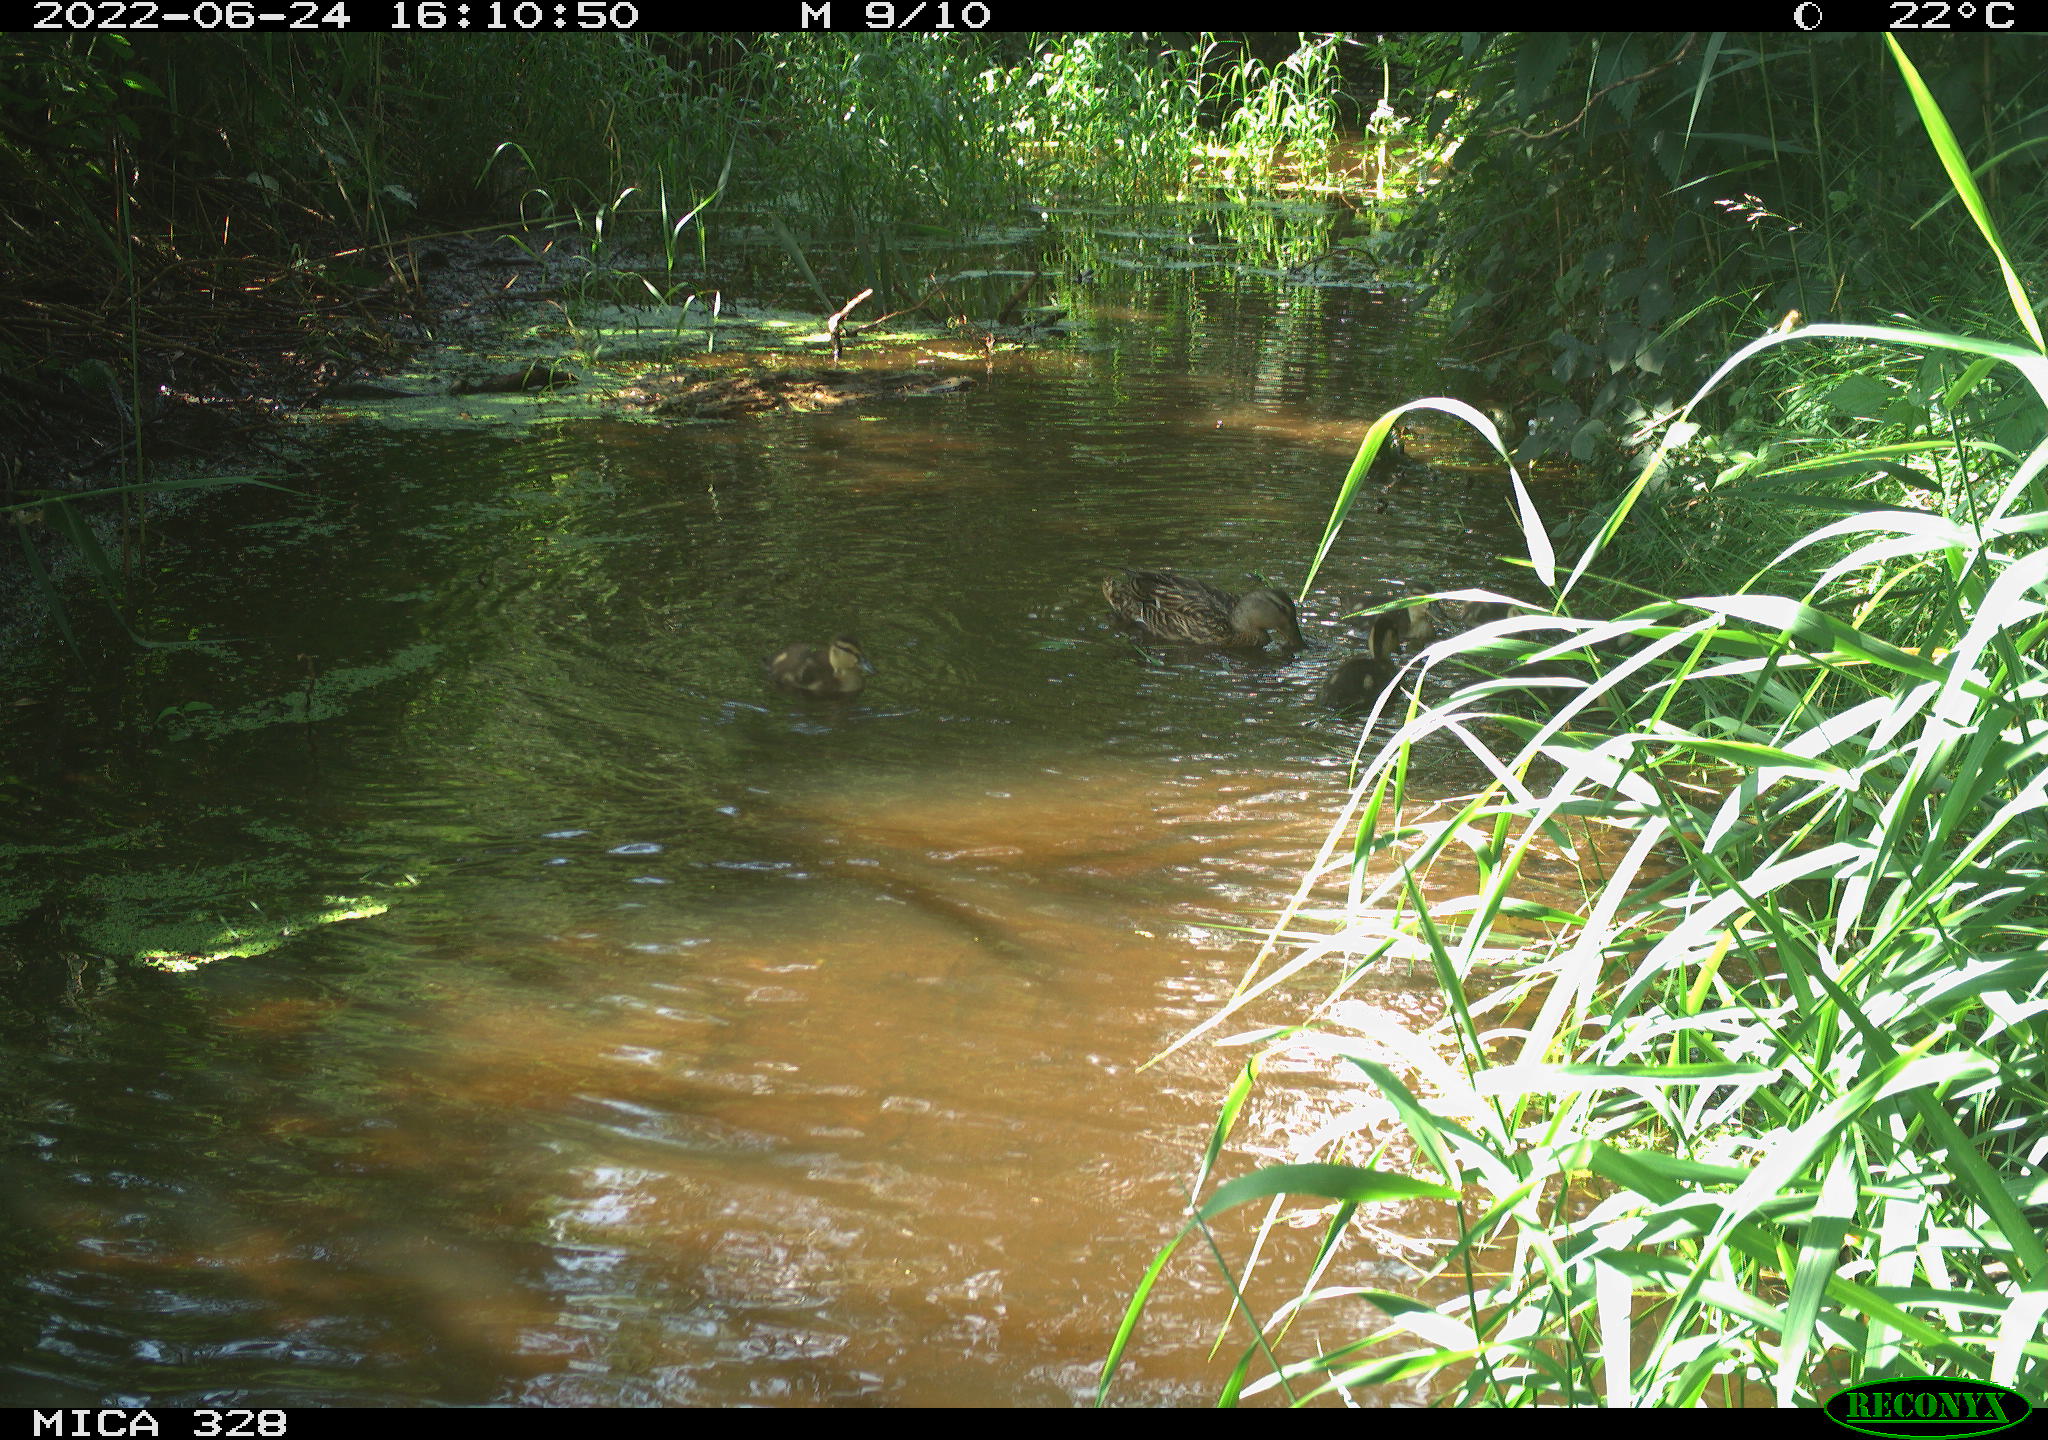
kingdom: Animalia
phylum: Chordata
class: Aves
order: Anseriformes
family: Anatidae
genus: Anas
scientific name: Anas platyrhynchos
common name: Mallard
